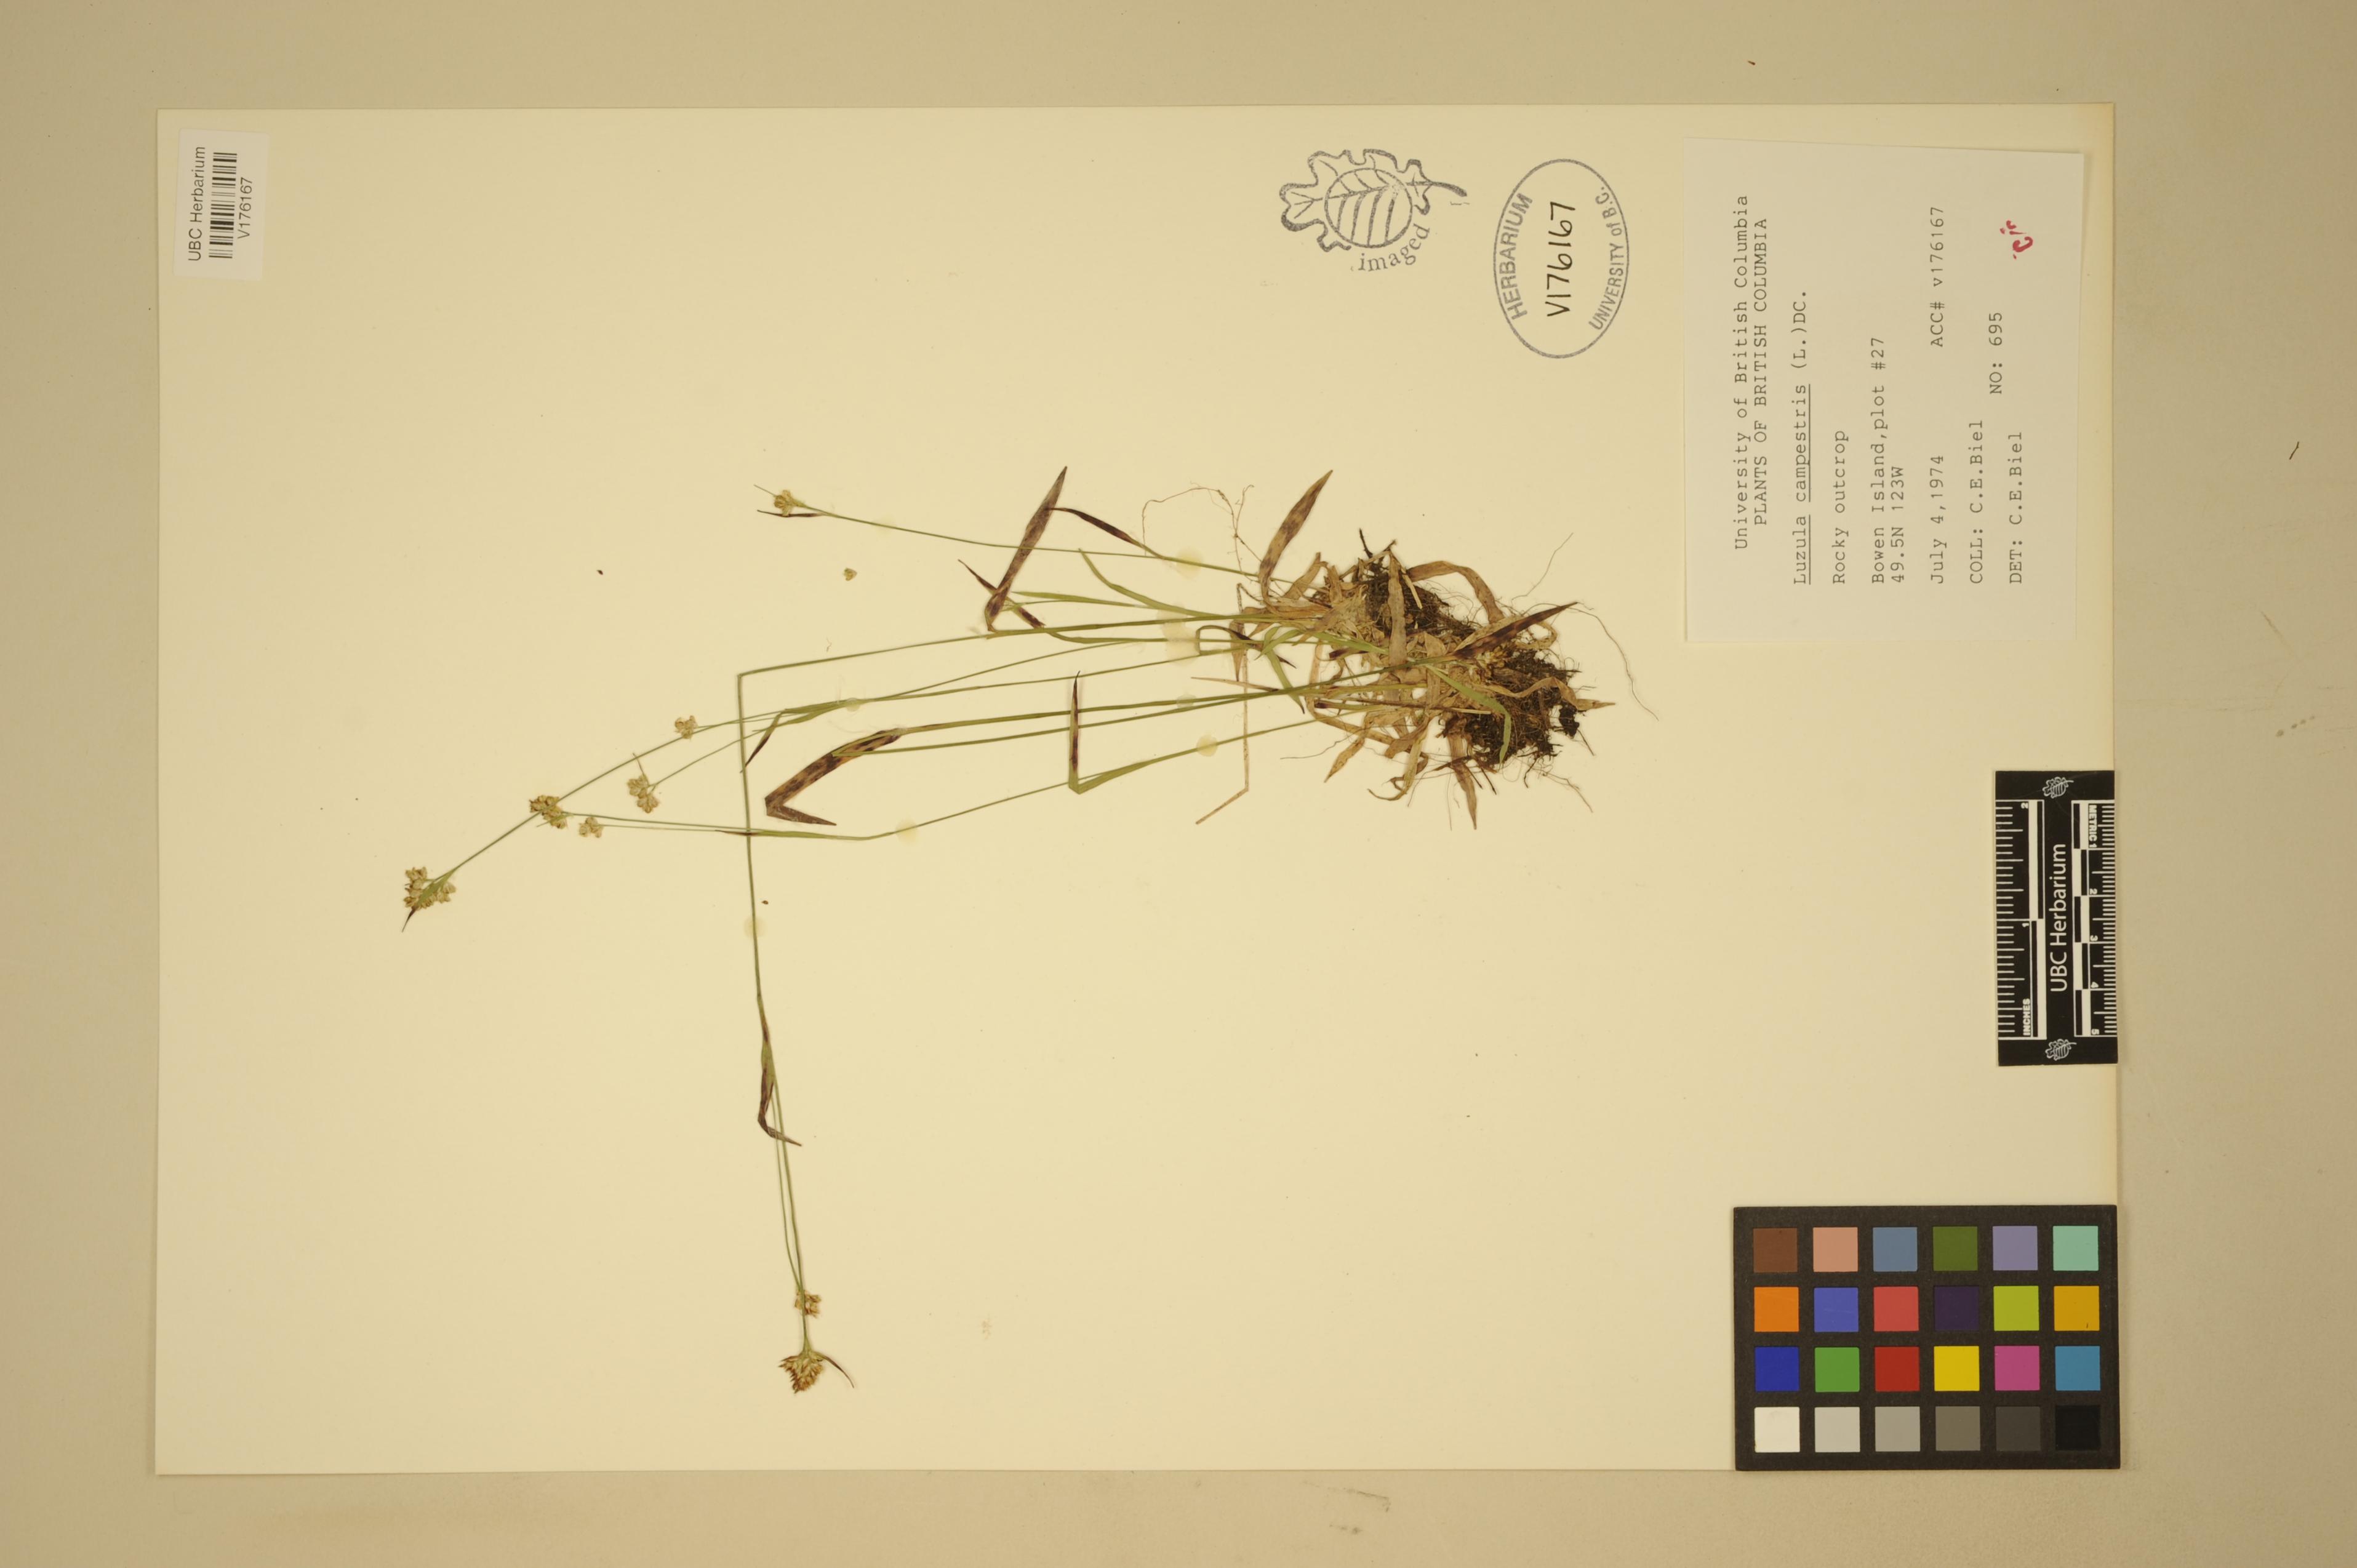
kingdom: Plantae
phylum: Tracheophyta
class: Liliopsida
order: Poales
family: Juncaceae
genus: Luzula
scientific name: Luzula comosa
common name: Pacific woodrush
